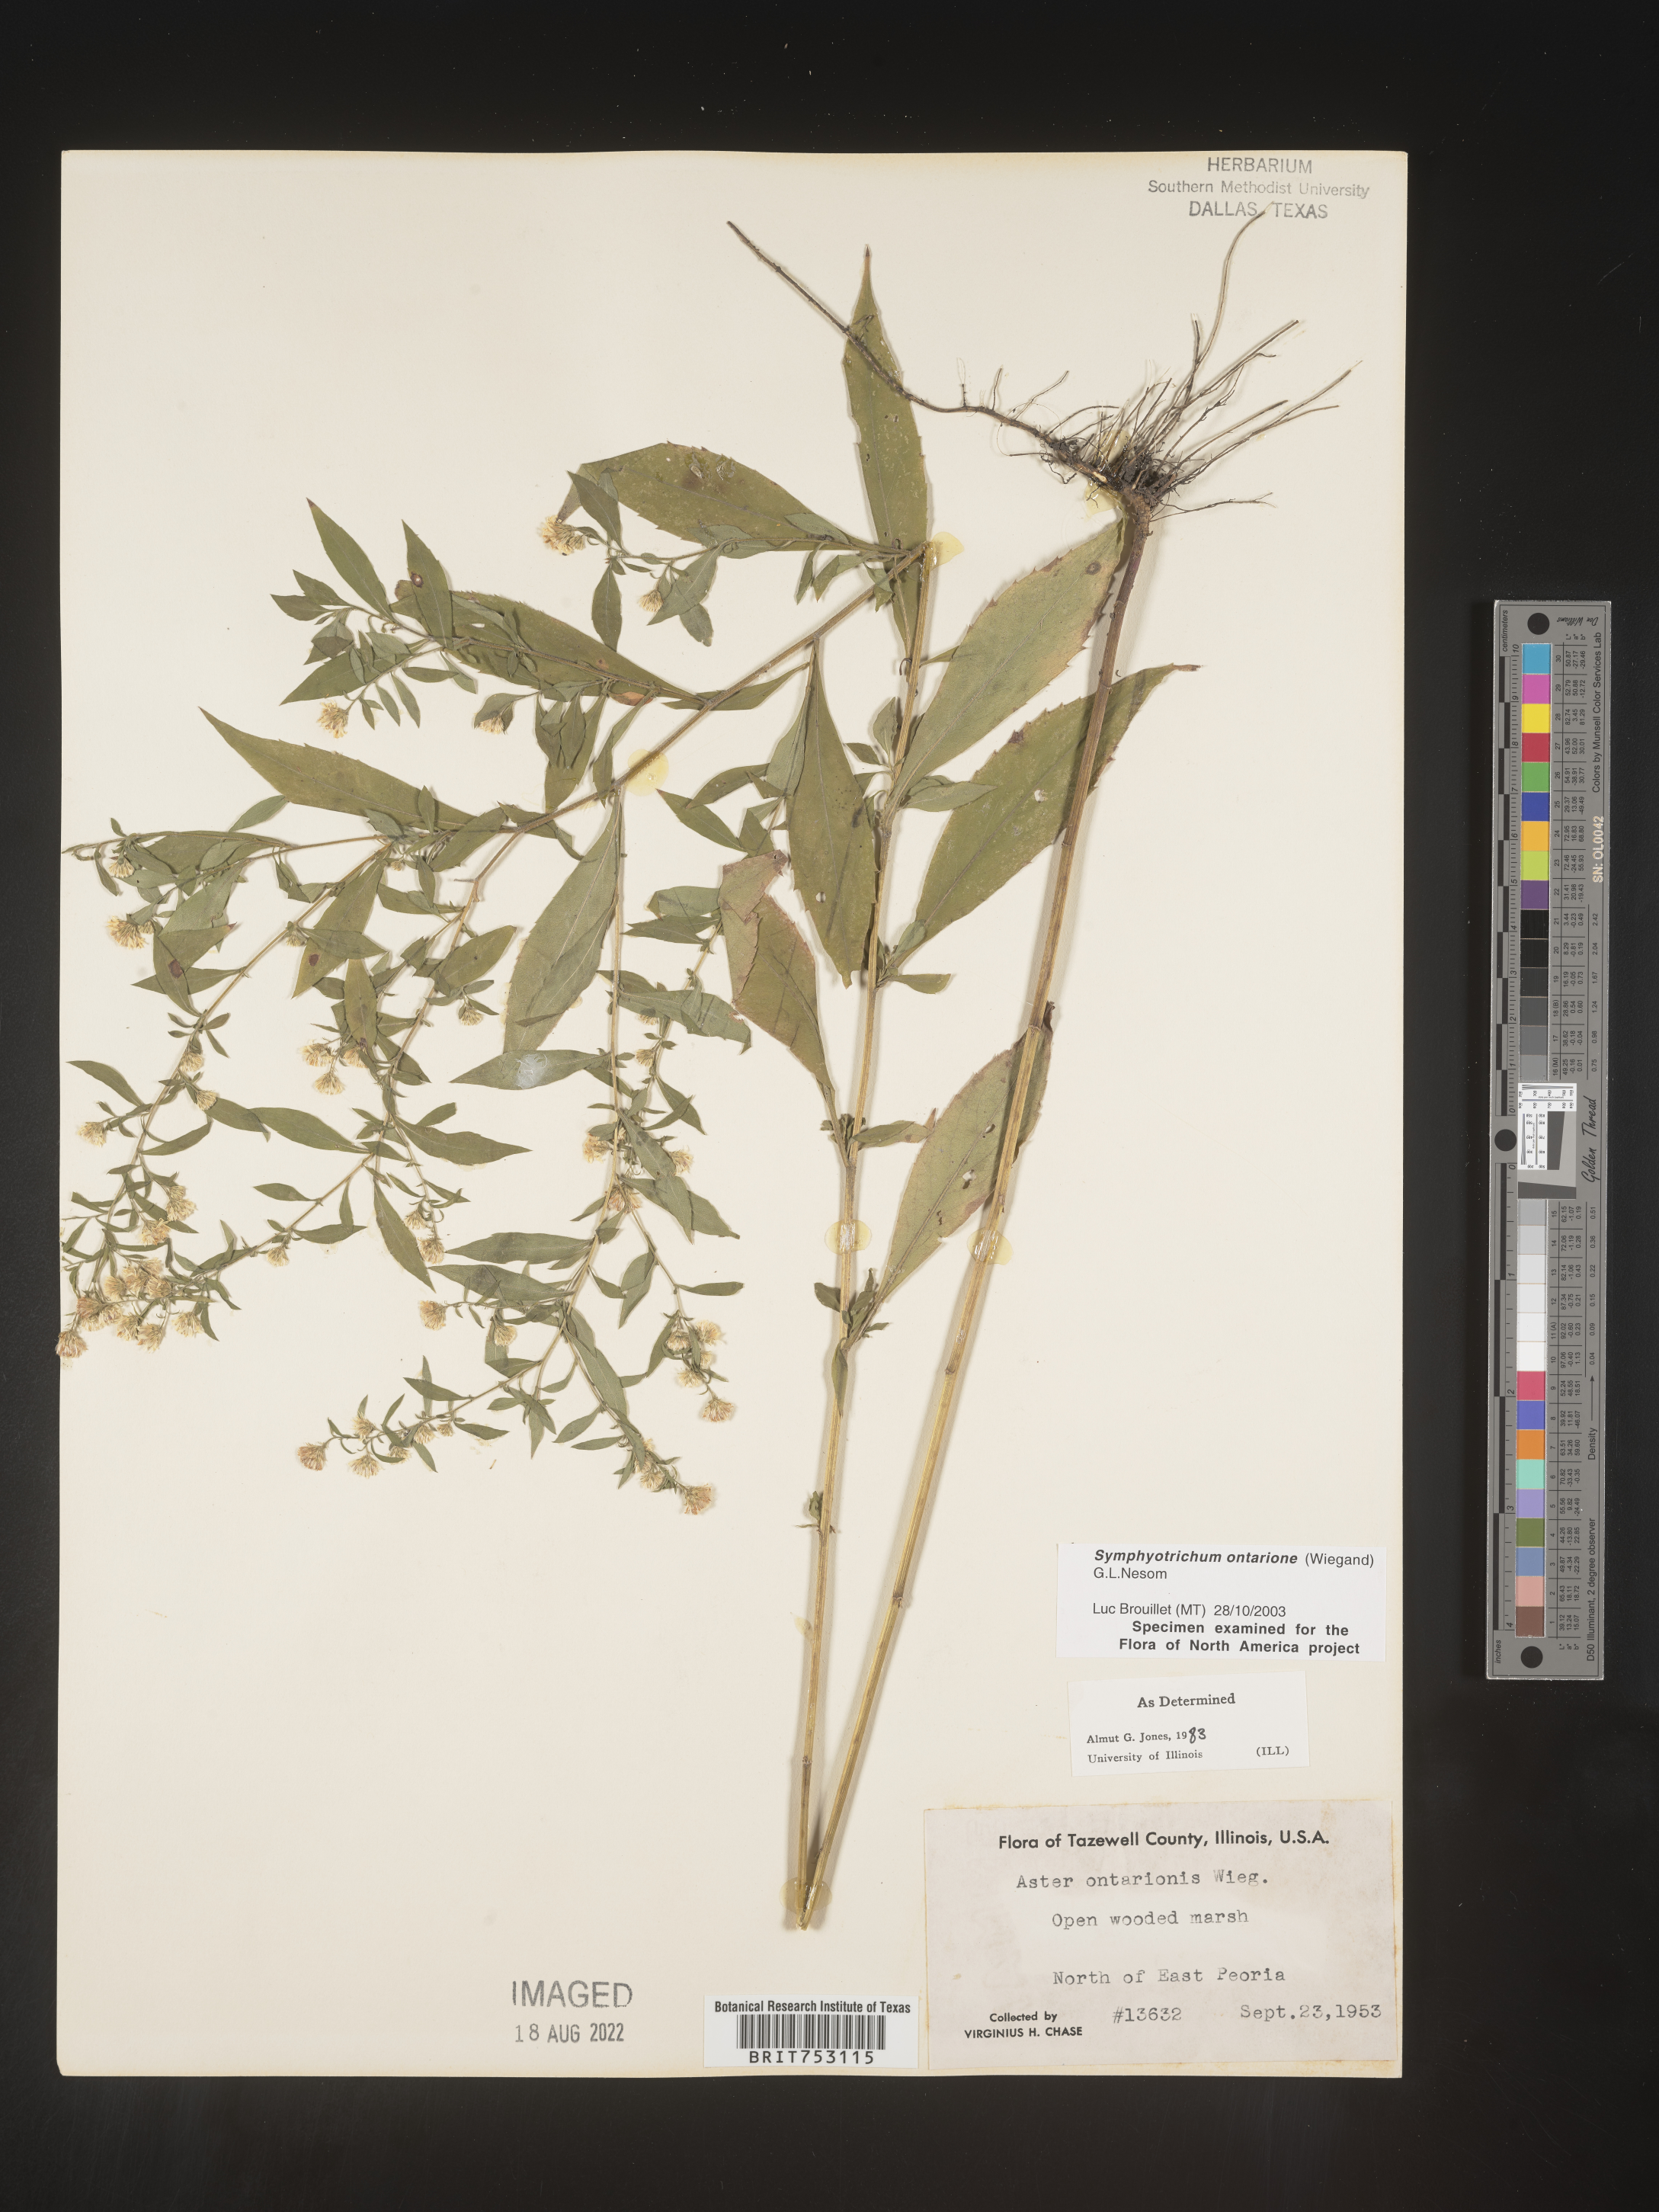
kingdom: Plantae
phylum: Tracheophyta
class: Magnoliopsida
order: Asterales
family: Asteraceae
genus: Symphyotrichum
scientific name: Symphyotrichum ontarionis
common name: Bottomland aster
